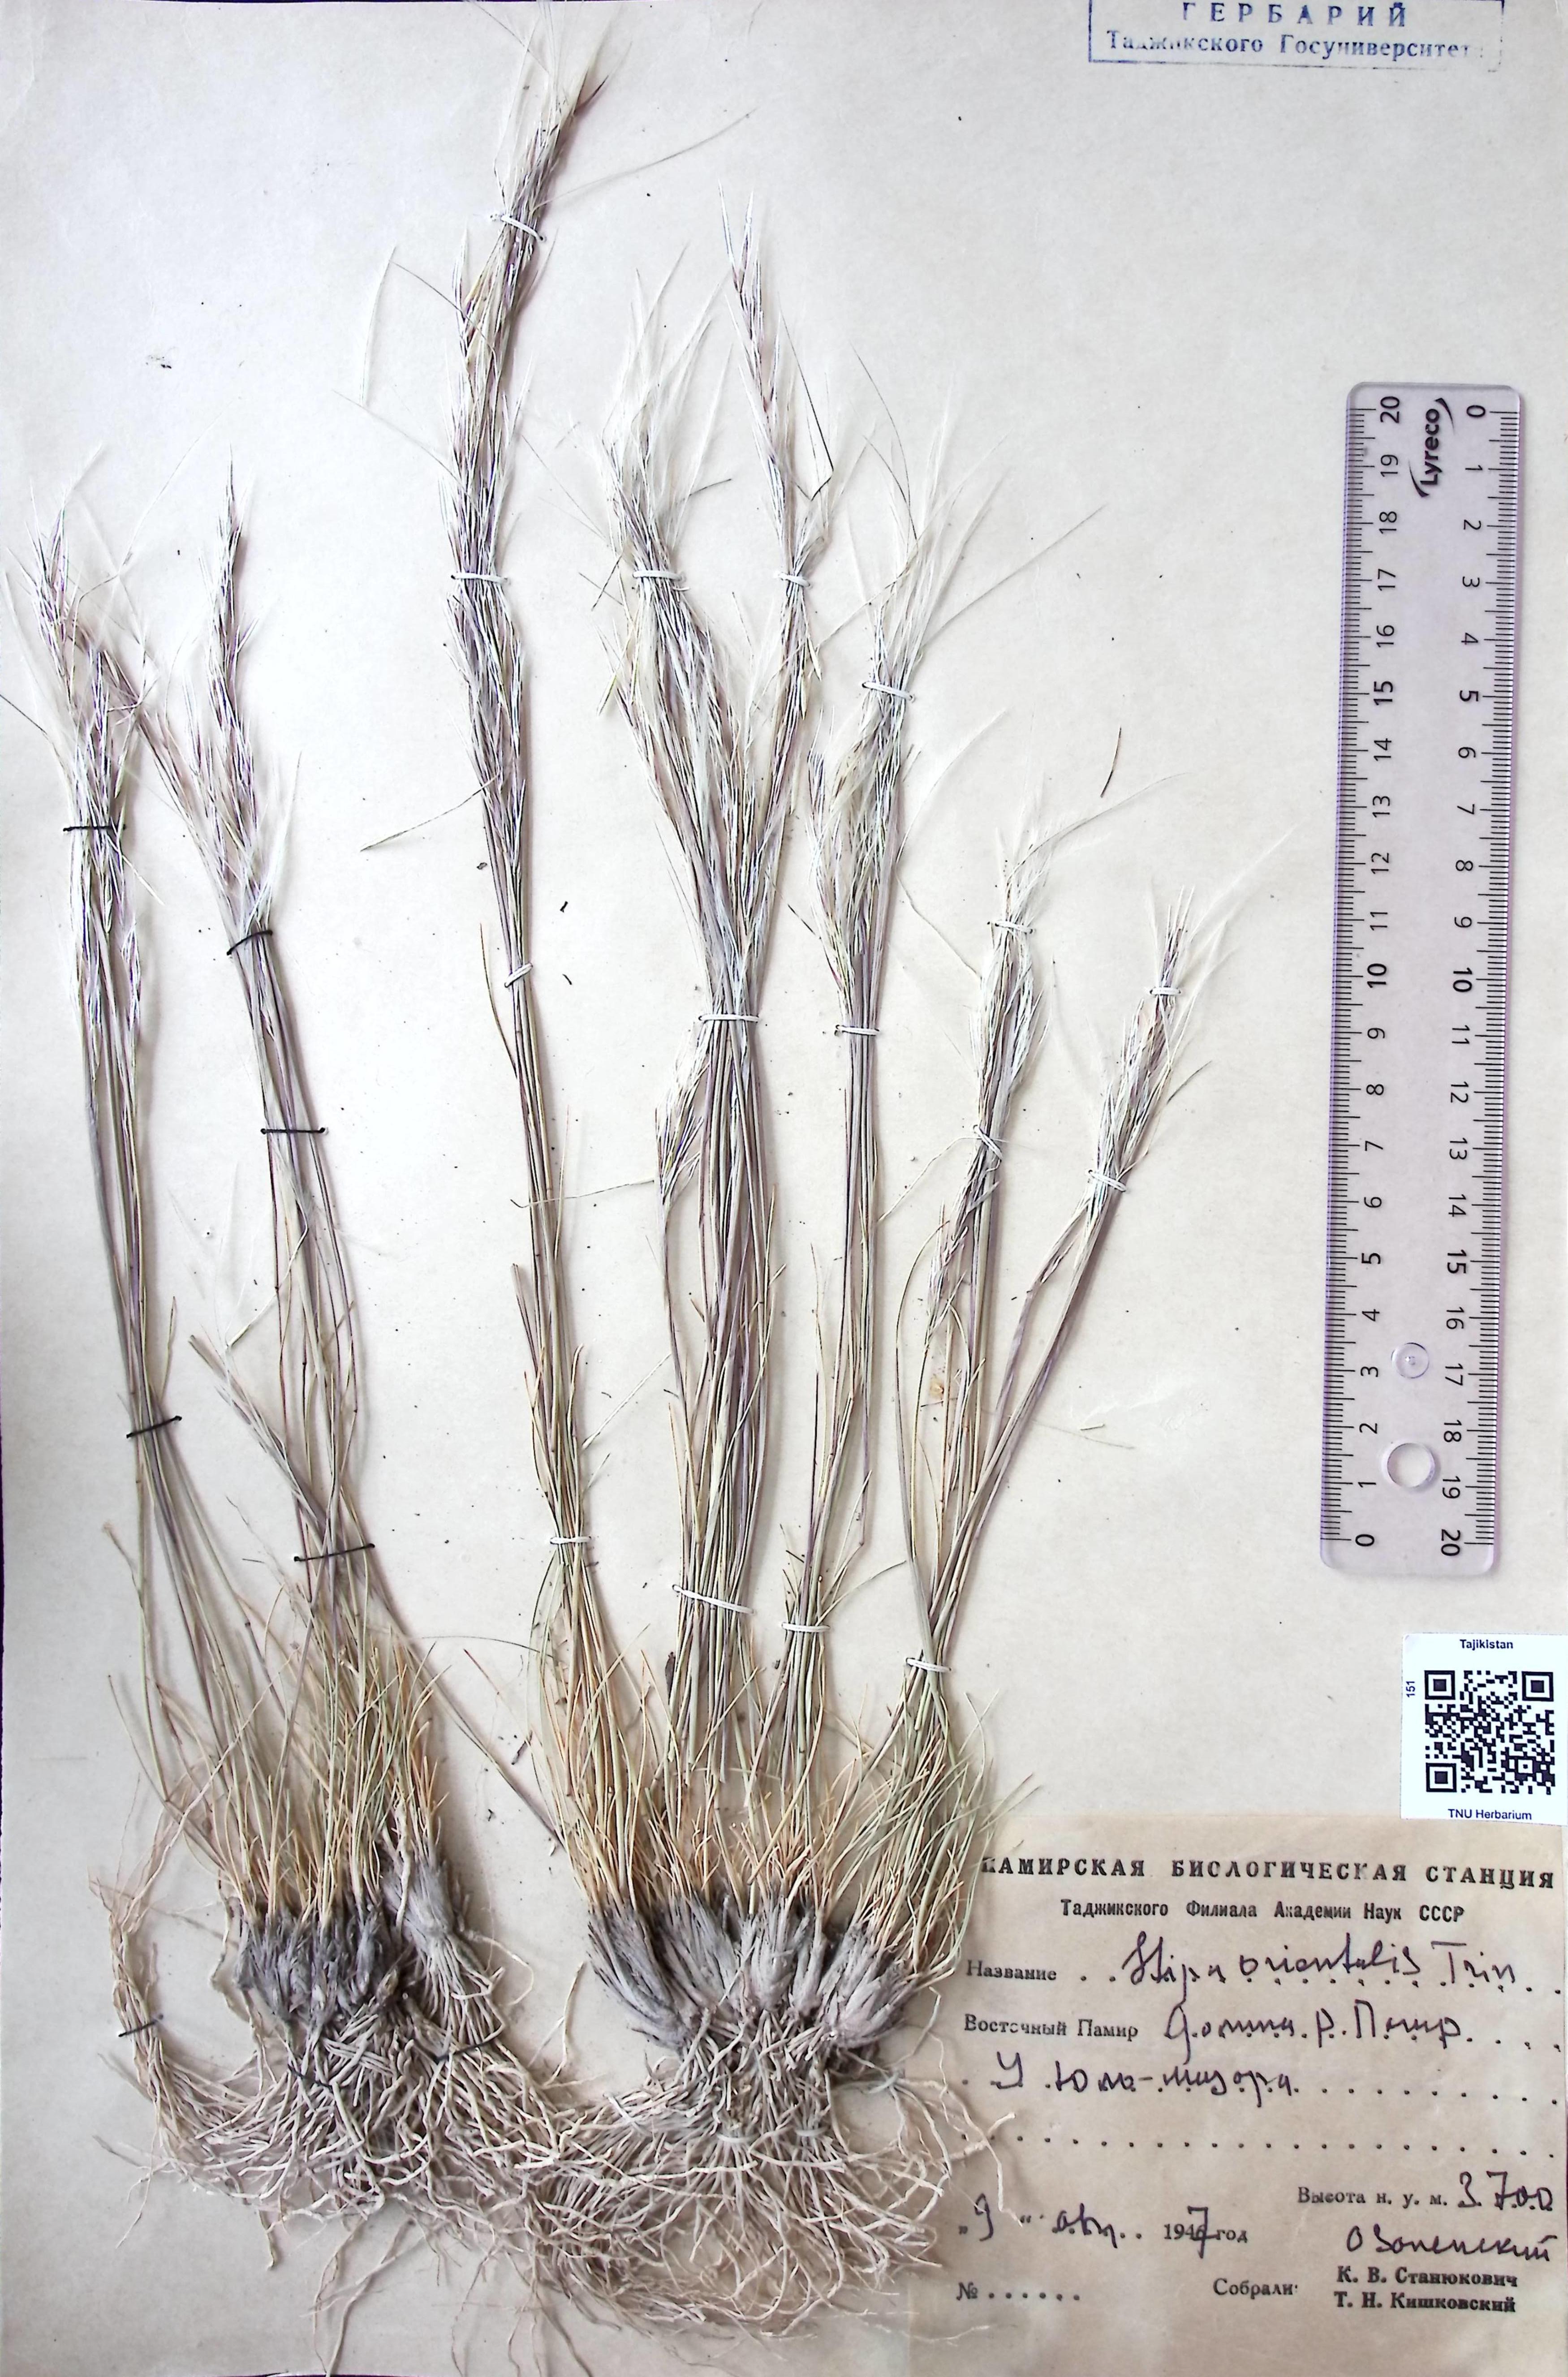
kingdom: Plantae
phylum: Tracheophyta
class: Liliopsida
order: Poales
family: Poaceae
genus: Stipa
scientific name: Stipa orientalis
